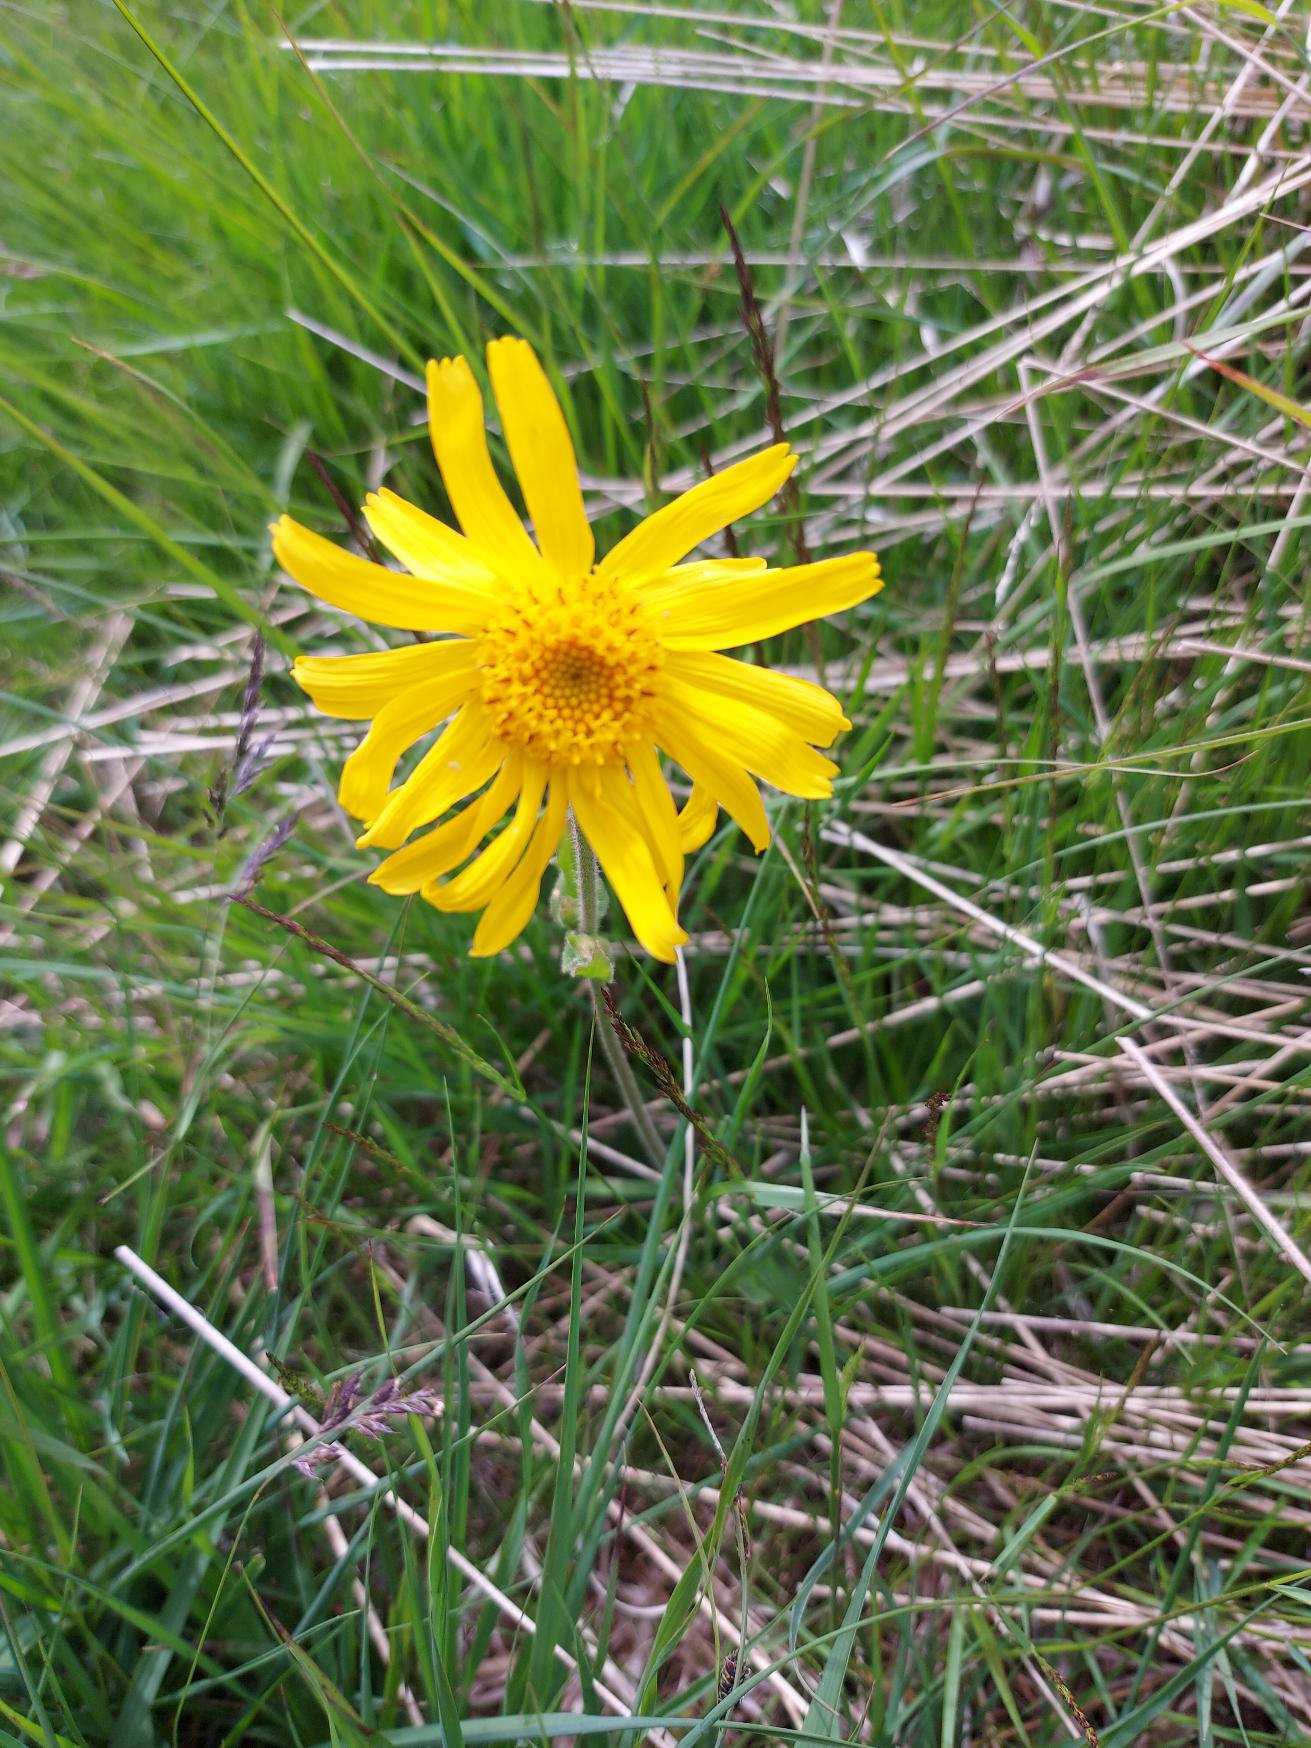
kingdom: Plantae
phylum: Tracheophyta
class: Magnoliopsida
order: Asterales
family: Asteraceae
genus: Arnica
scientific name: Arnica montana
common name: Guldblomme
